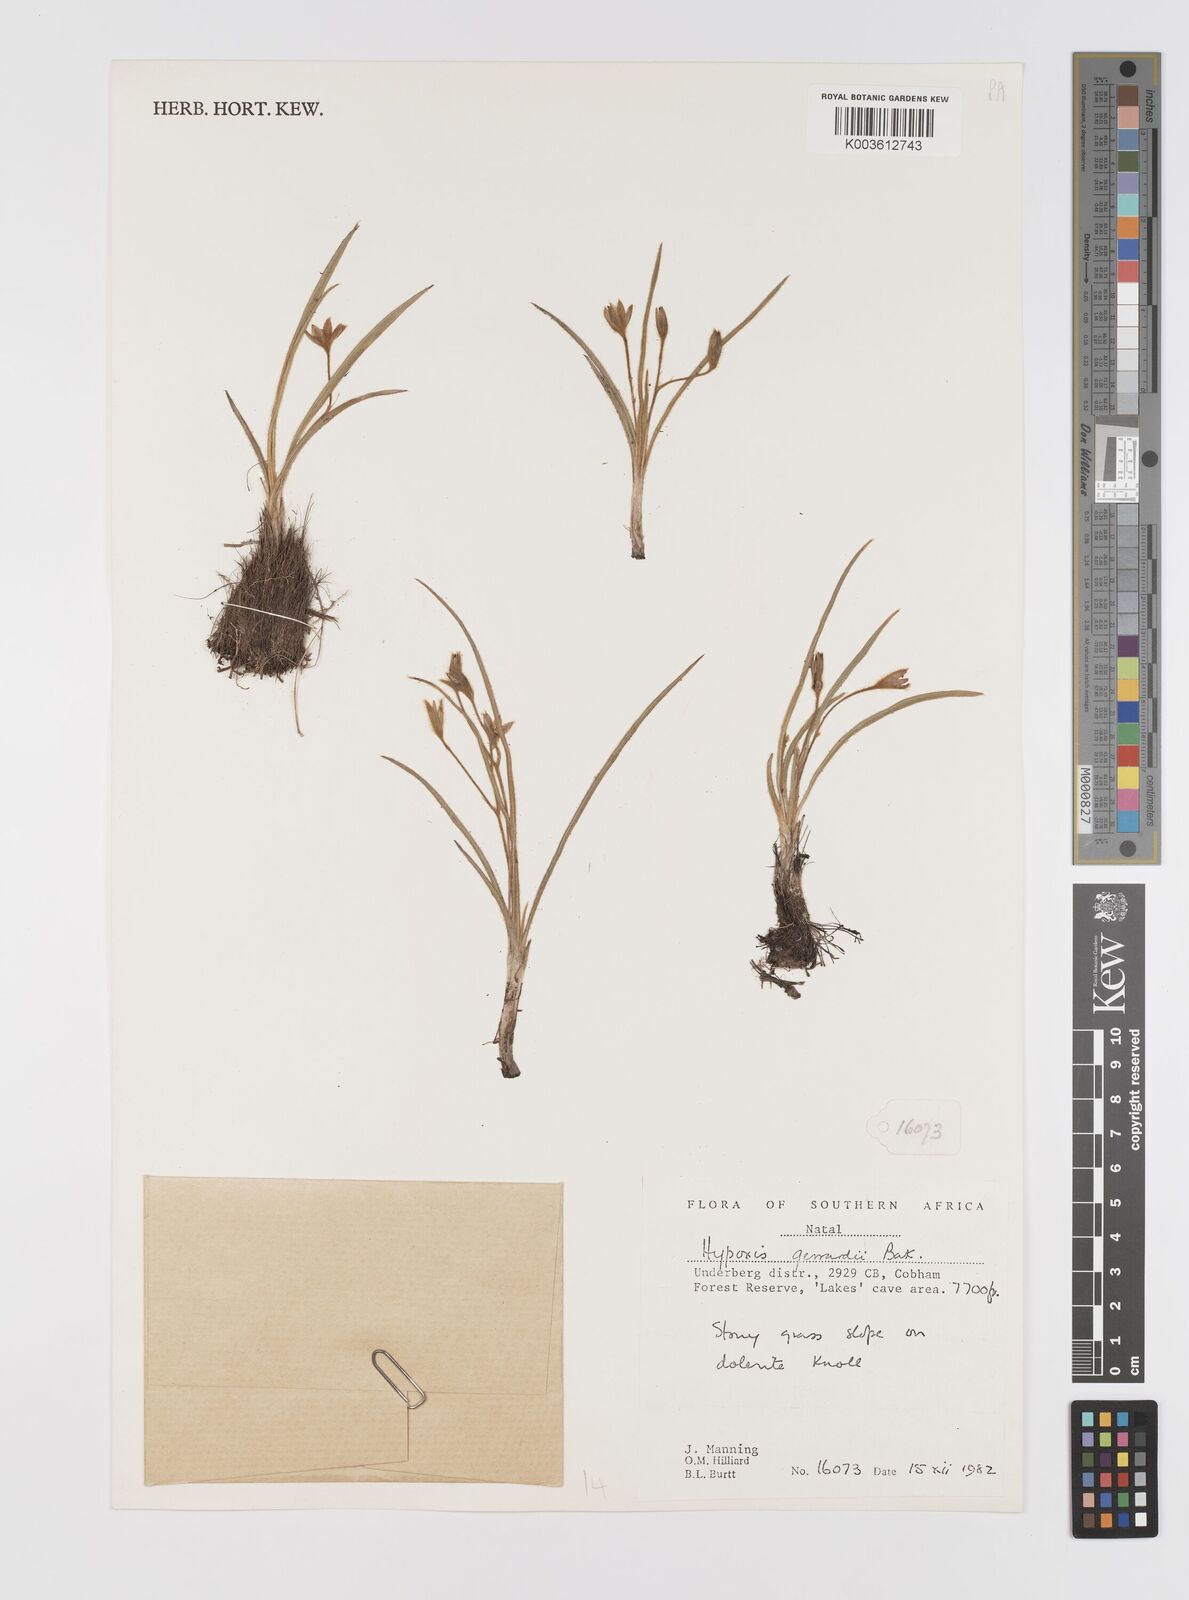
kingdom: Plantae
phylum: Tracheophyta
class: Liliopsida
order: Asparagales
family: Hypoxidaceae
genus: Hypoxis
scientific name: Hypoxis gerrardii
